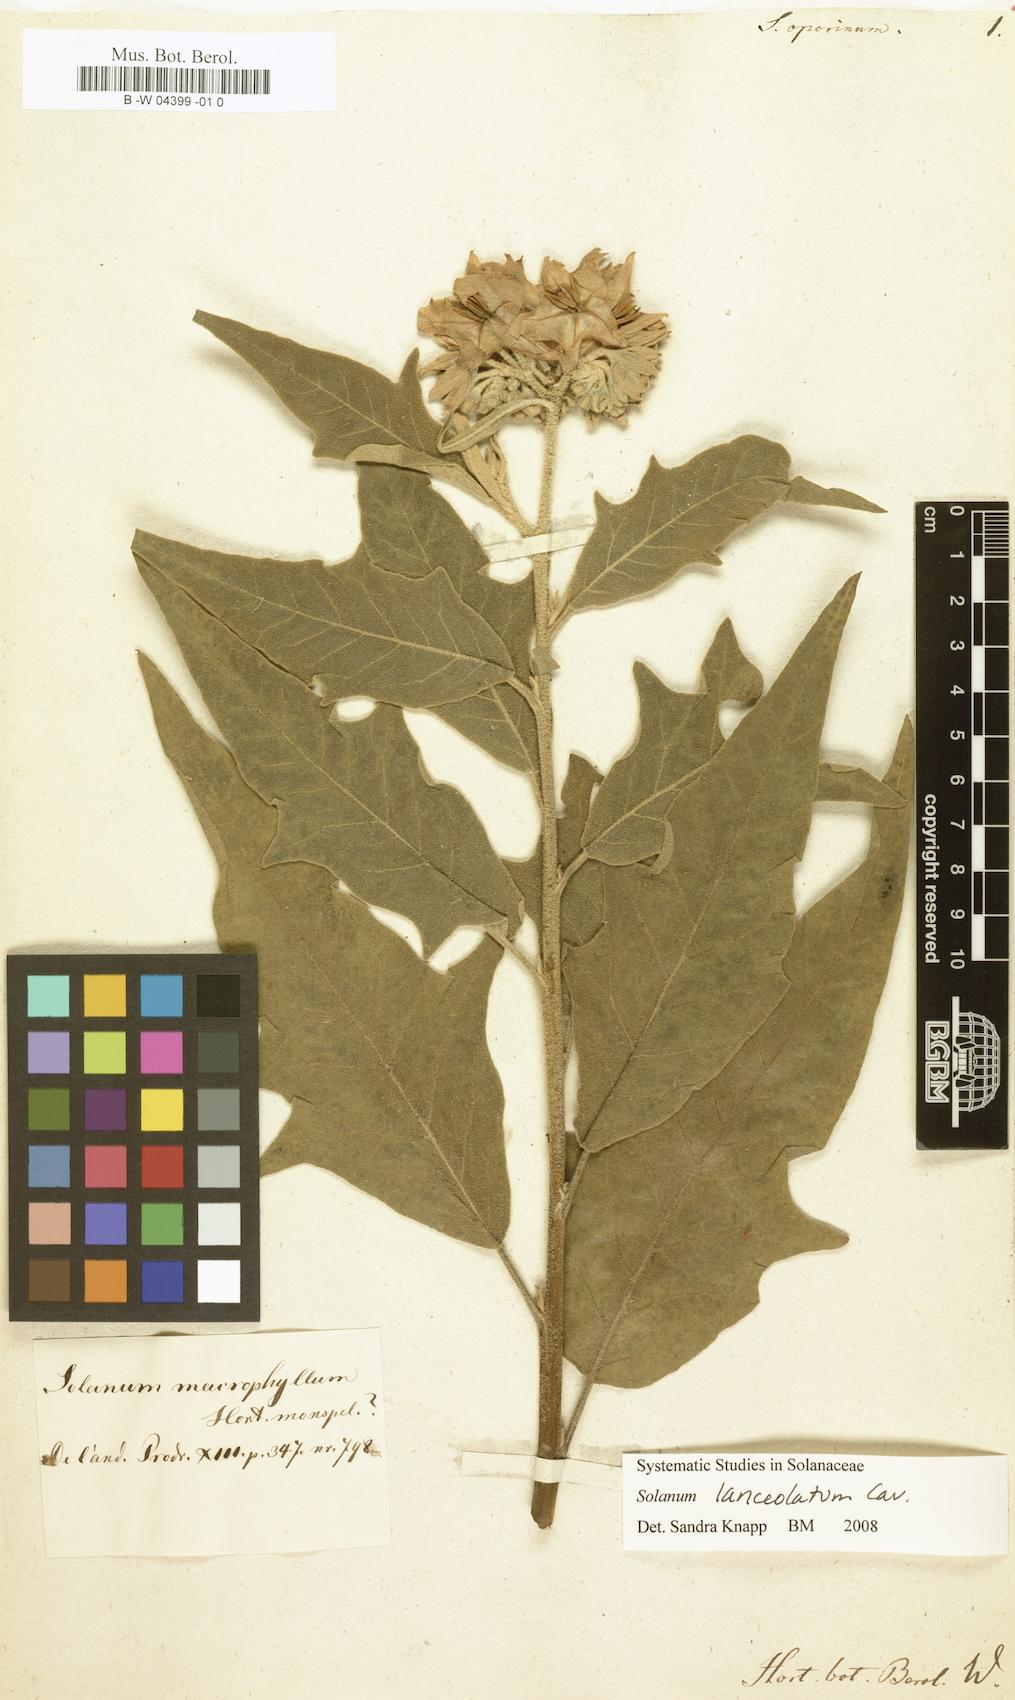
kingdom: Plantae
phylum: Tracheophyta
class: Magnoliopsida
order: Solanales
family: Solanaceae
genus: Solanum
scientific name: Solanum albidum
